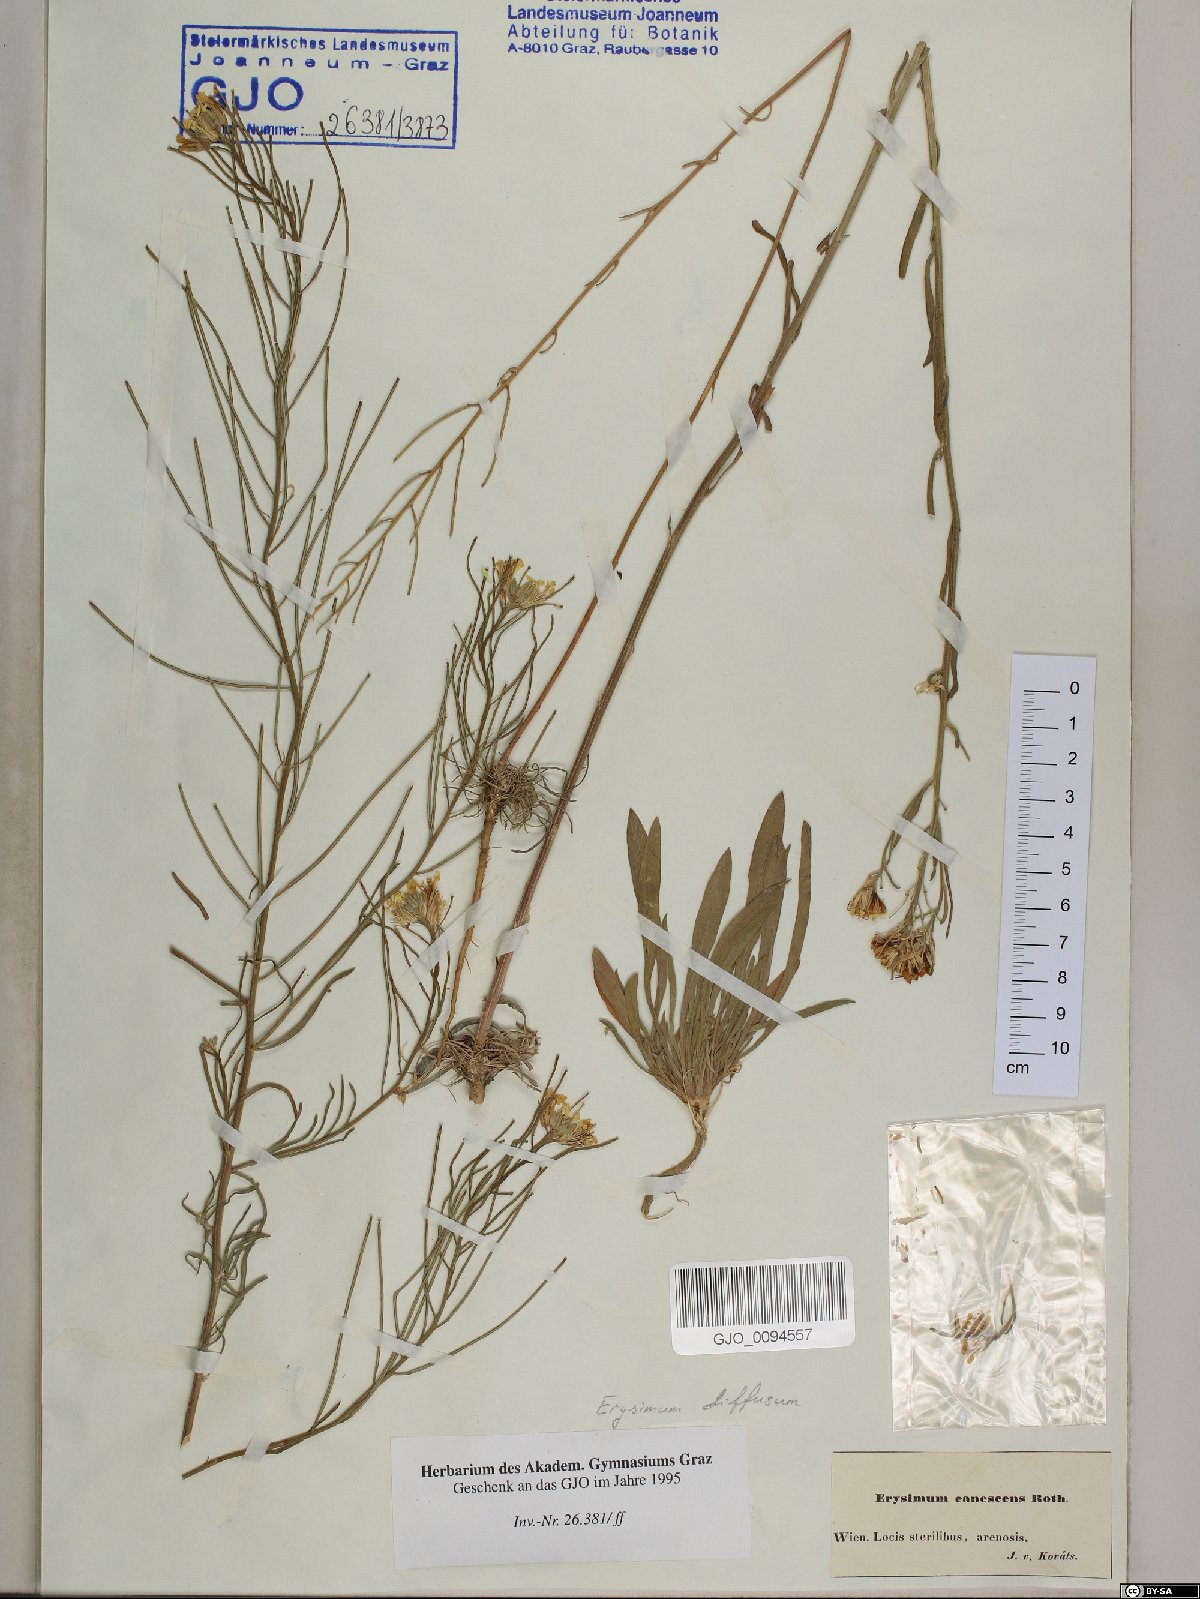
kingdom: Plantae
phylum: Tracheophyta
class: Magnoliopsida
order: Brassicales
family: Brassicaceae
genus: Erysimum
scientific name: Erysimum canescens
